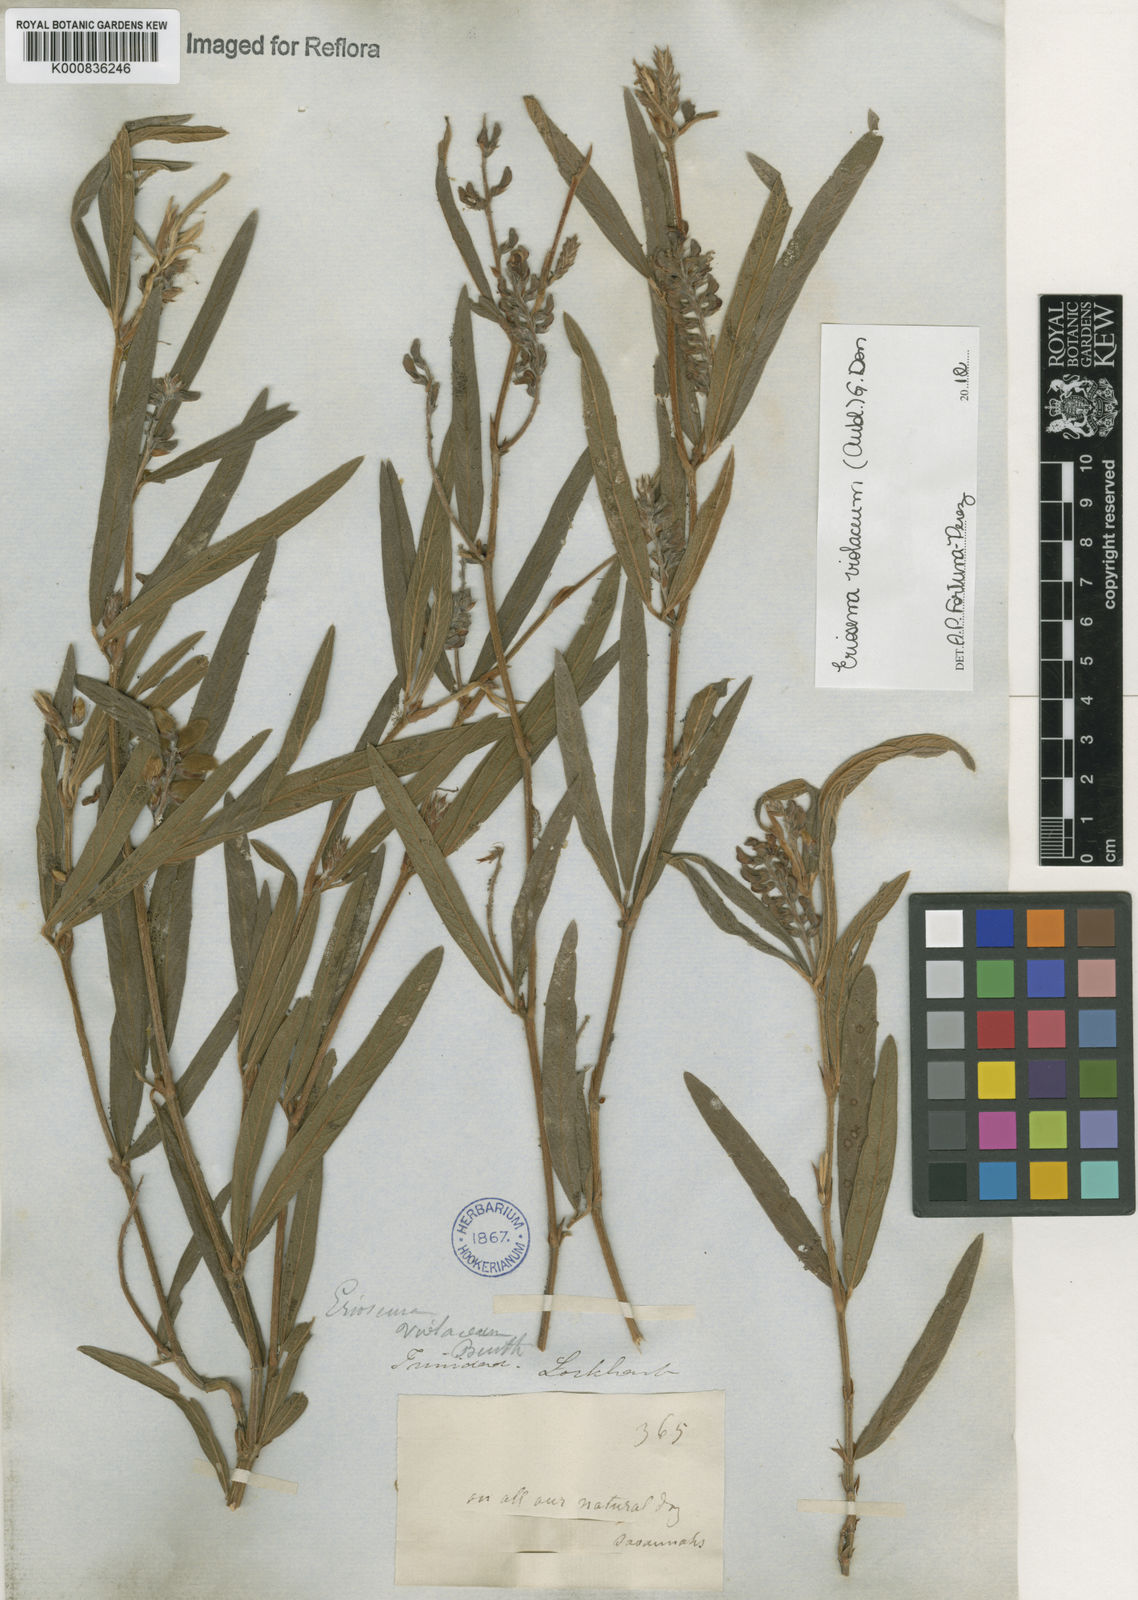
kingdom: Plantae
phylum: Tracheophyta
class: Magnoliopsida
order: Fabales
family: Fabaceae
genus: Eriosema
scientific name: Eriosema violaceum
